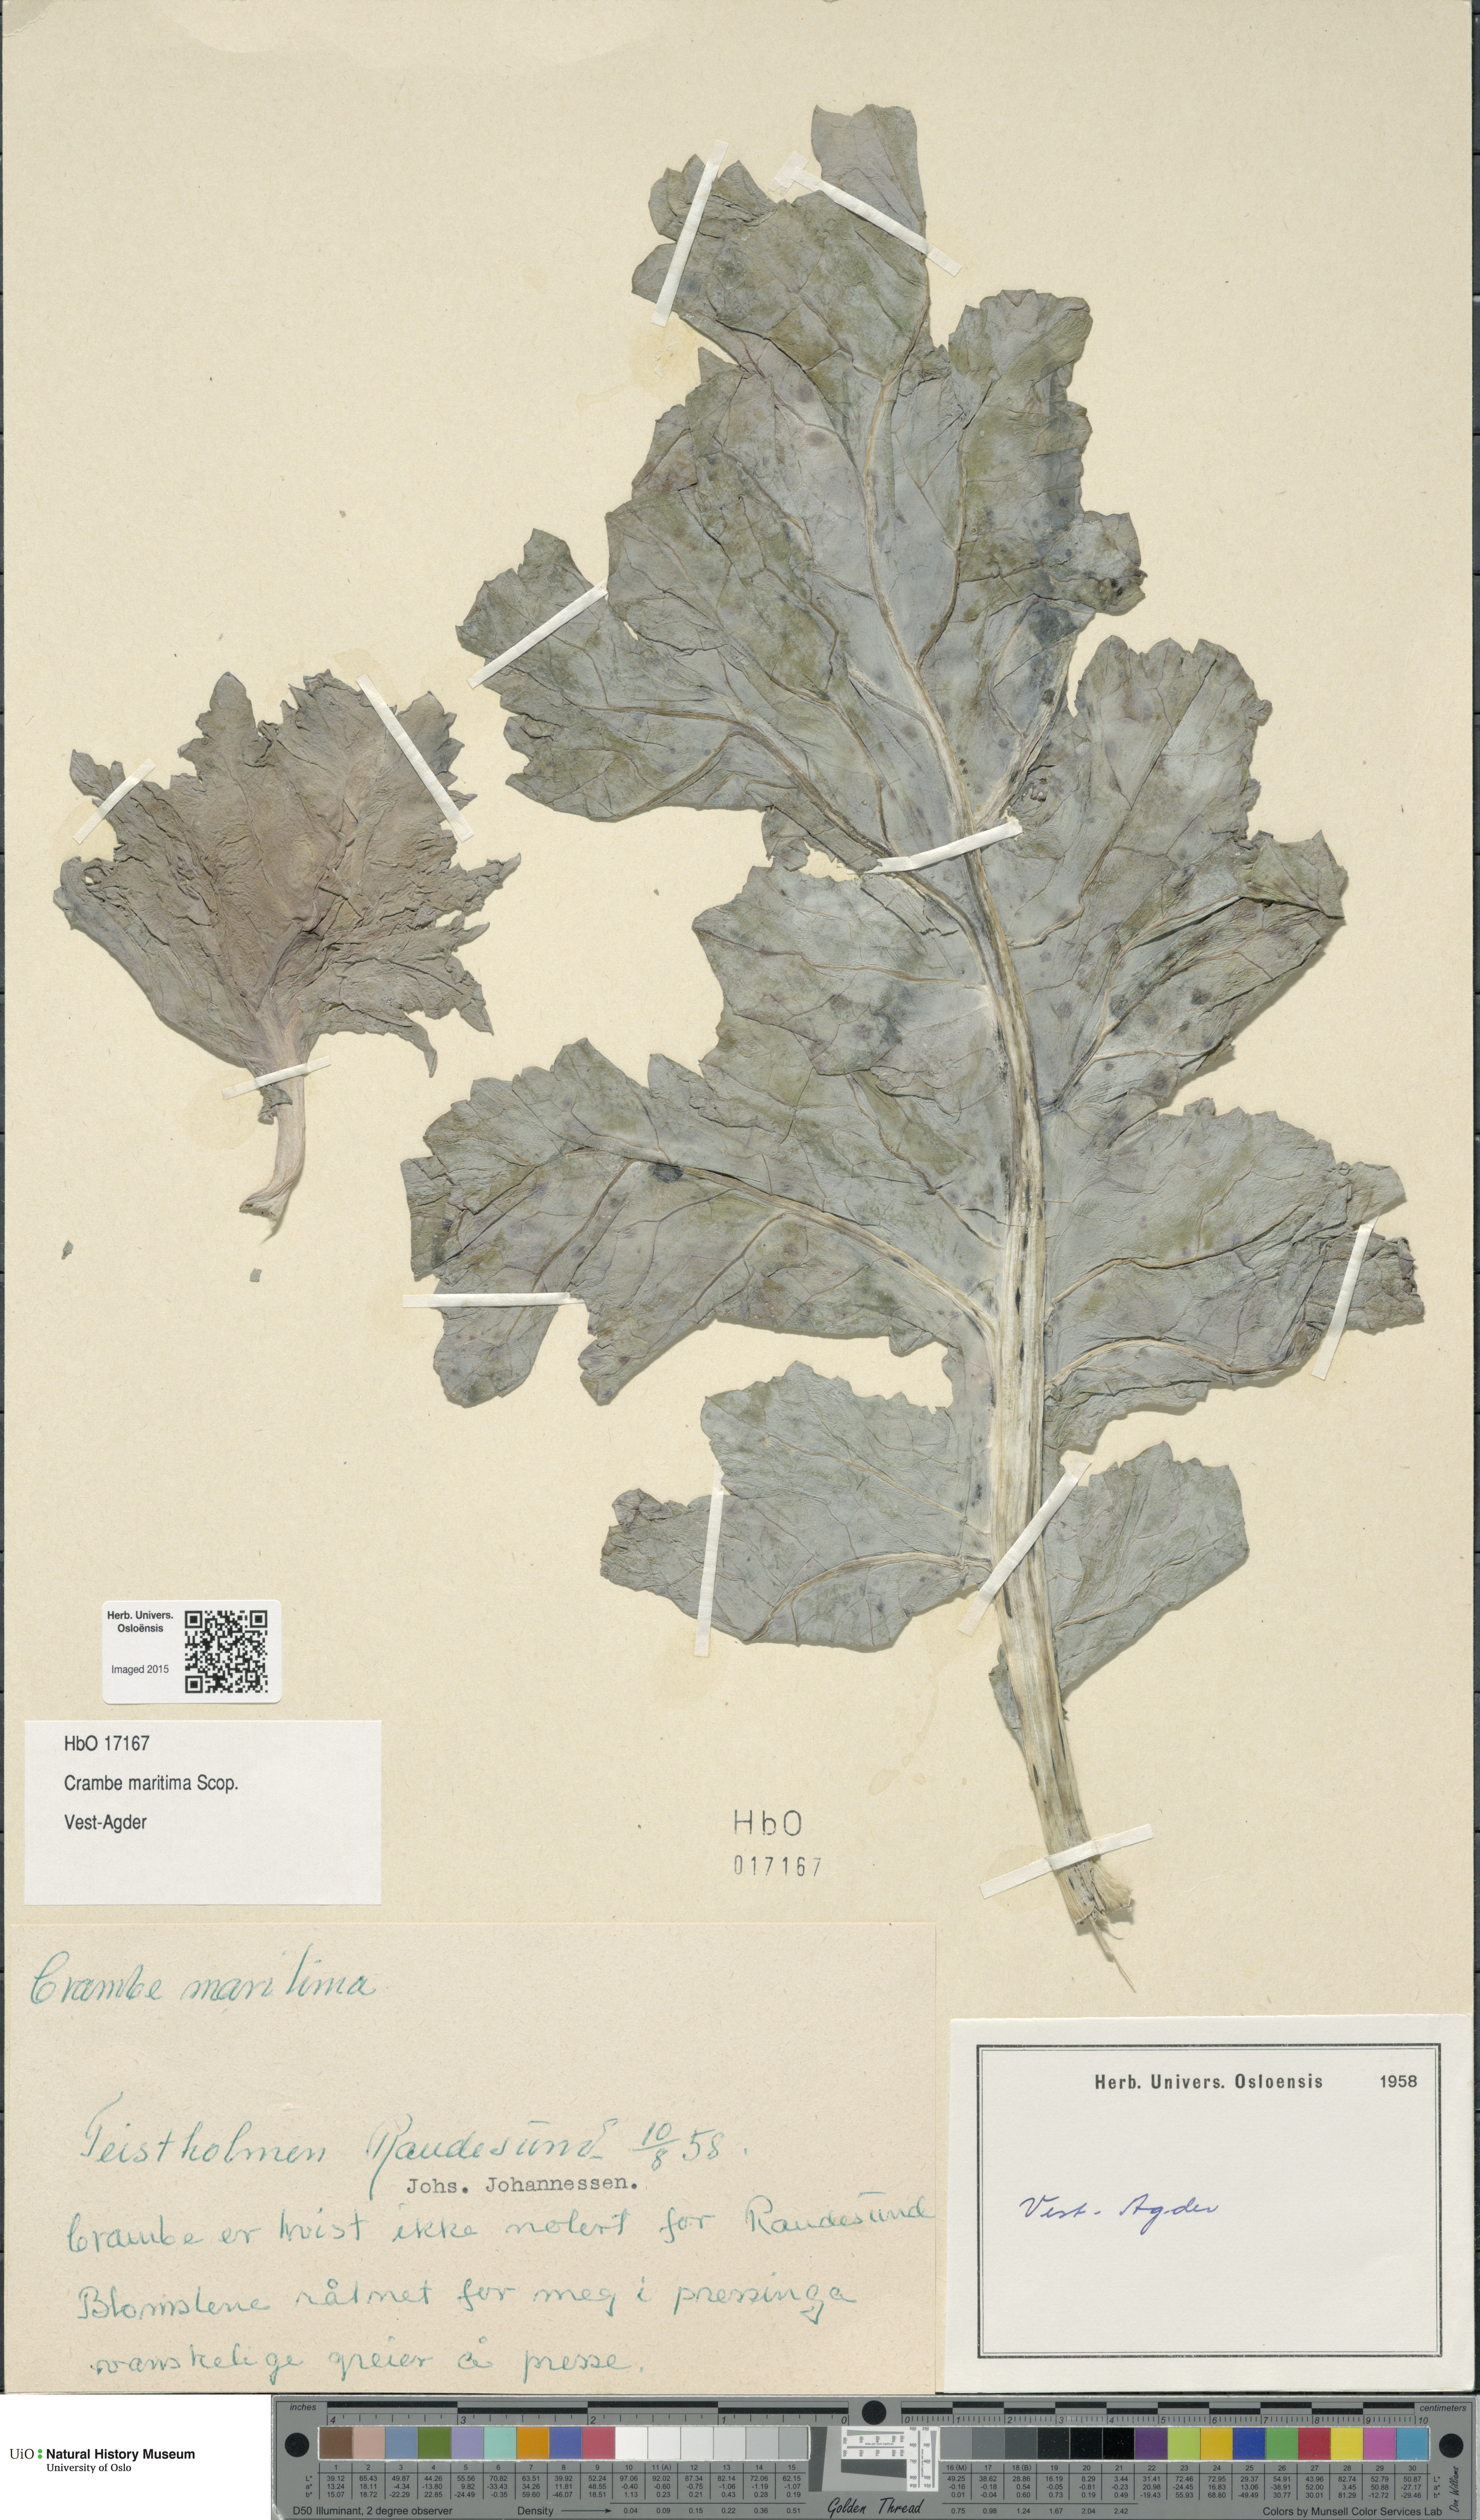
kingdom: Plantae
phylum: Tracheophyta
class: Magnoliopsida
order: Brassicales
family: Brassicaceae
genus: Crambe
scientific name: Crambe maritima
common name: Sea-kale
